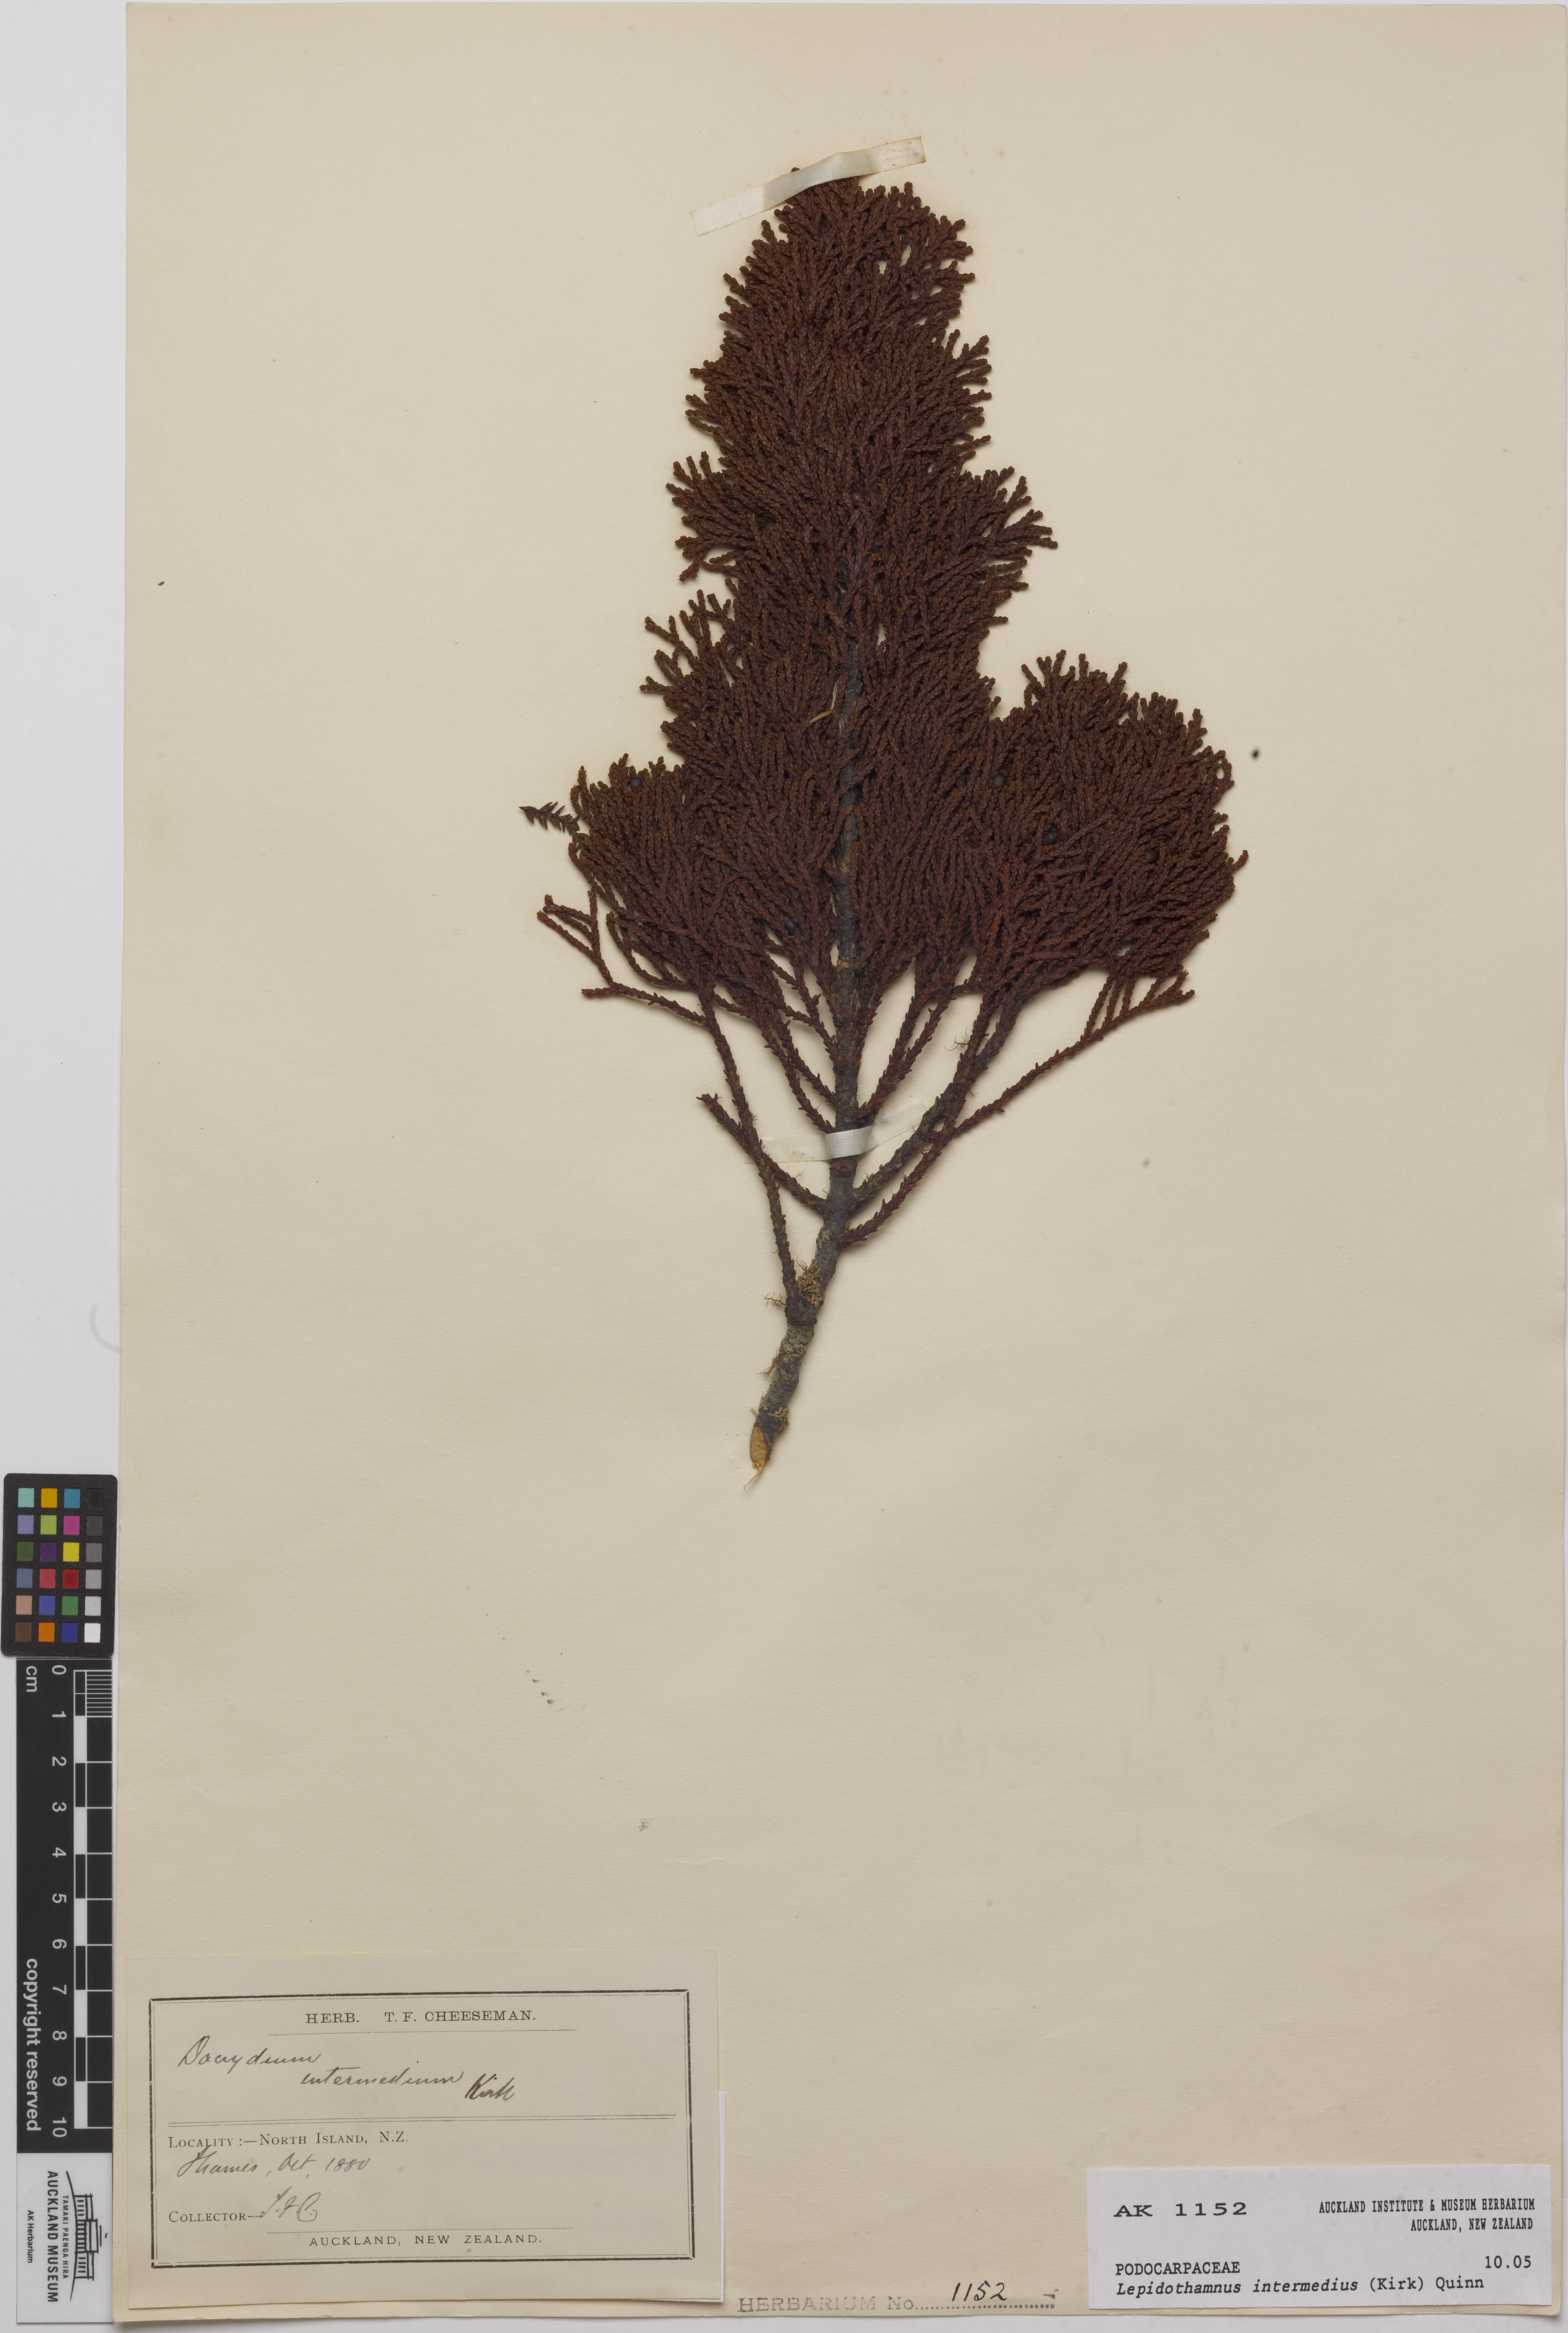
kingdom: Plantae
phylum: Tracheophyta
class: Pinopsida
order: Pinales
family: Podocarpaceae
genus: Lepidothamnus
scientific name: Lepidothamnus intermedius
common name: Yellow silver pine
